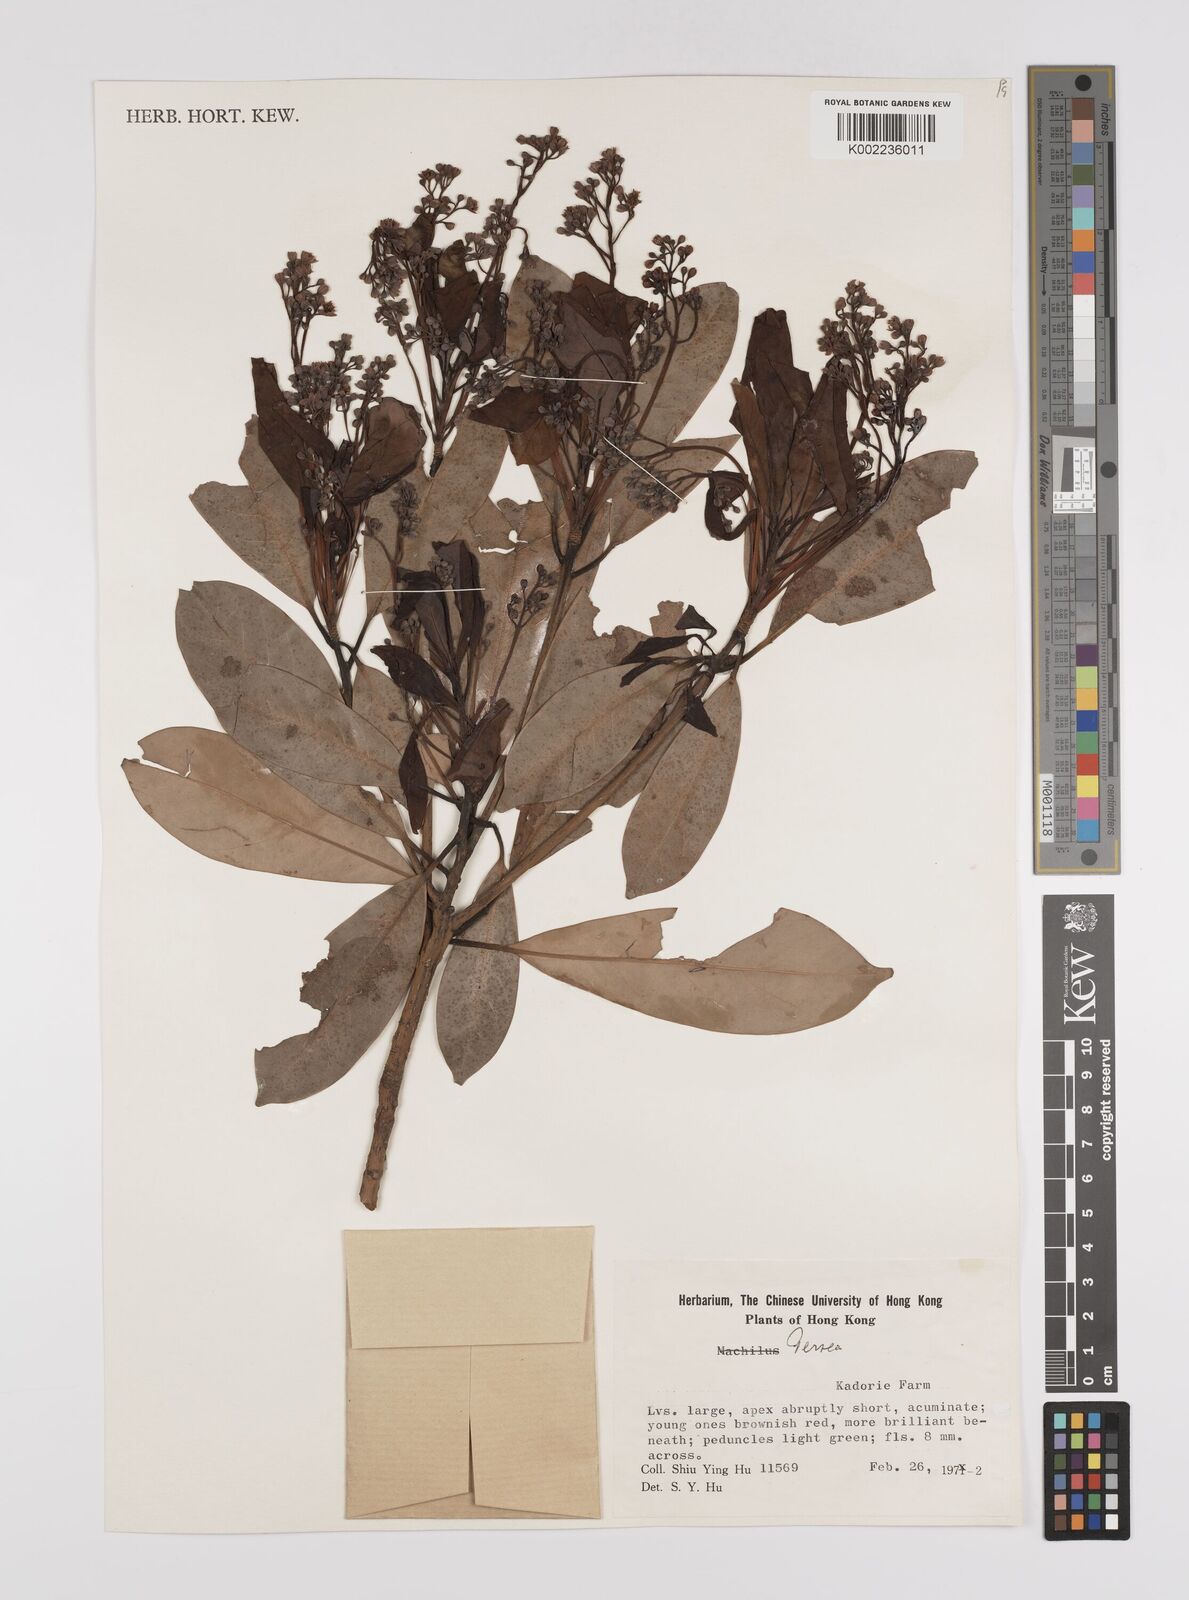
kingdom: Plantae
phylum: Tracheophyta
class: Magnoliopsida
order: Laurales
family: Lauraceae
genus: Persea
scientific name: Persea
